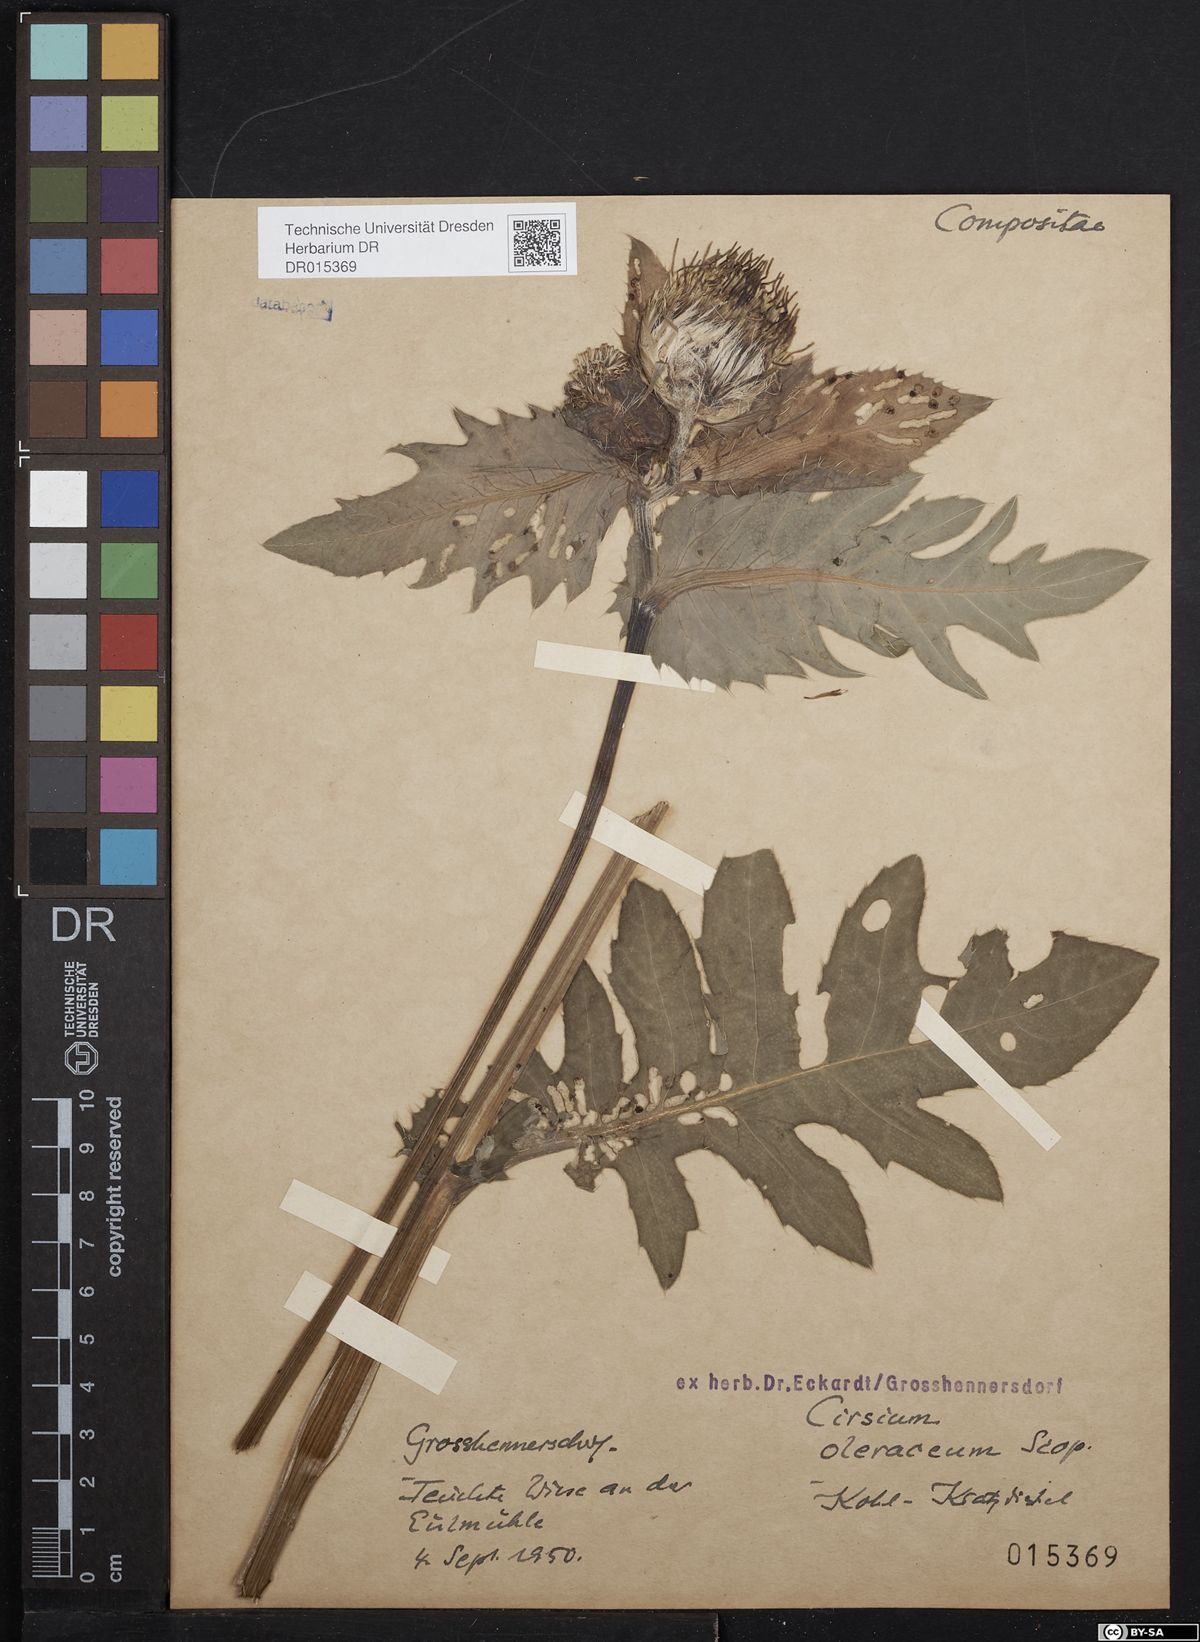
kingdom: Plantae
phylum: Tracheophyta
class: Magnoliopsida
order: Asterales
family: Asteraceae
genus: Cirsium
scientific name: Cirsium oleraceum
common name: Cabbage thistle
